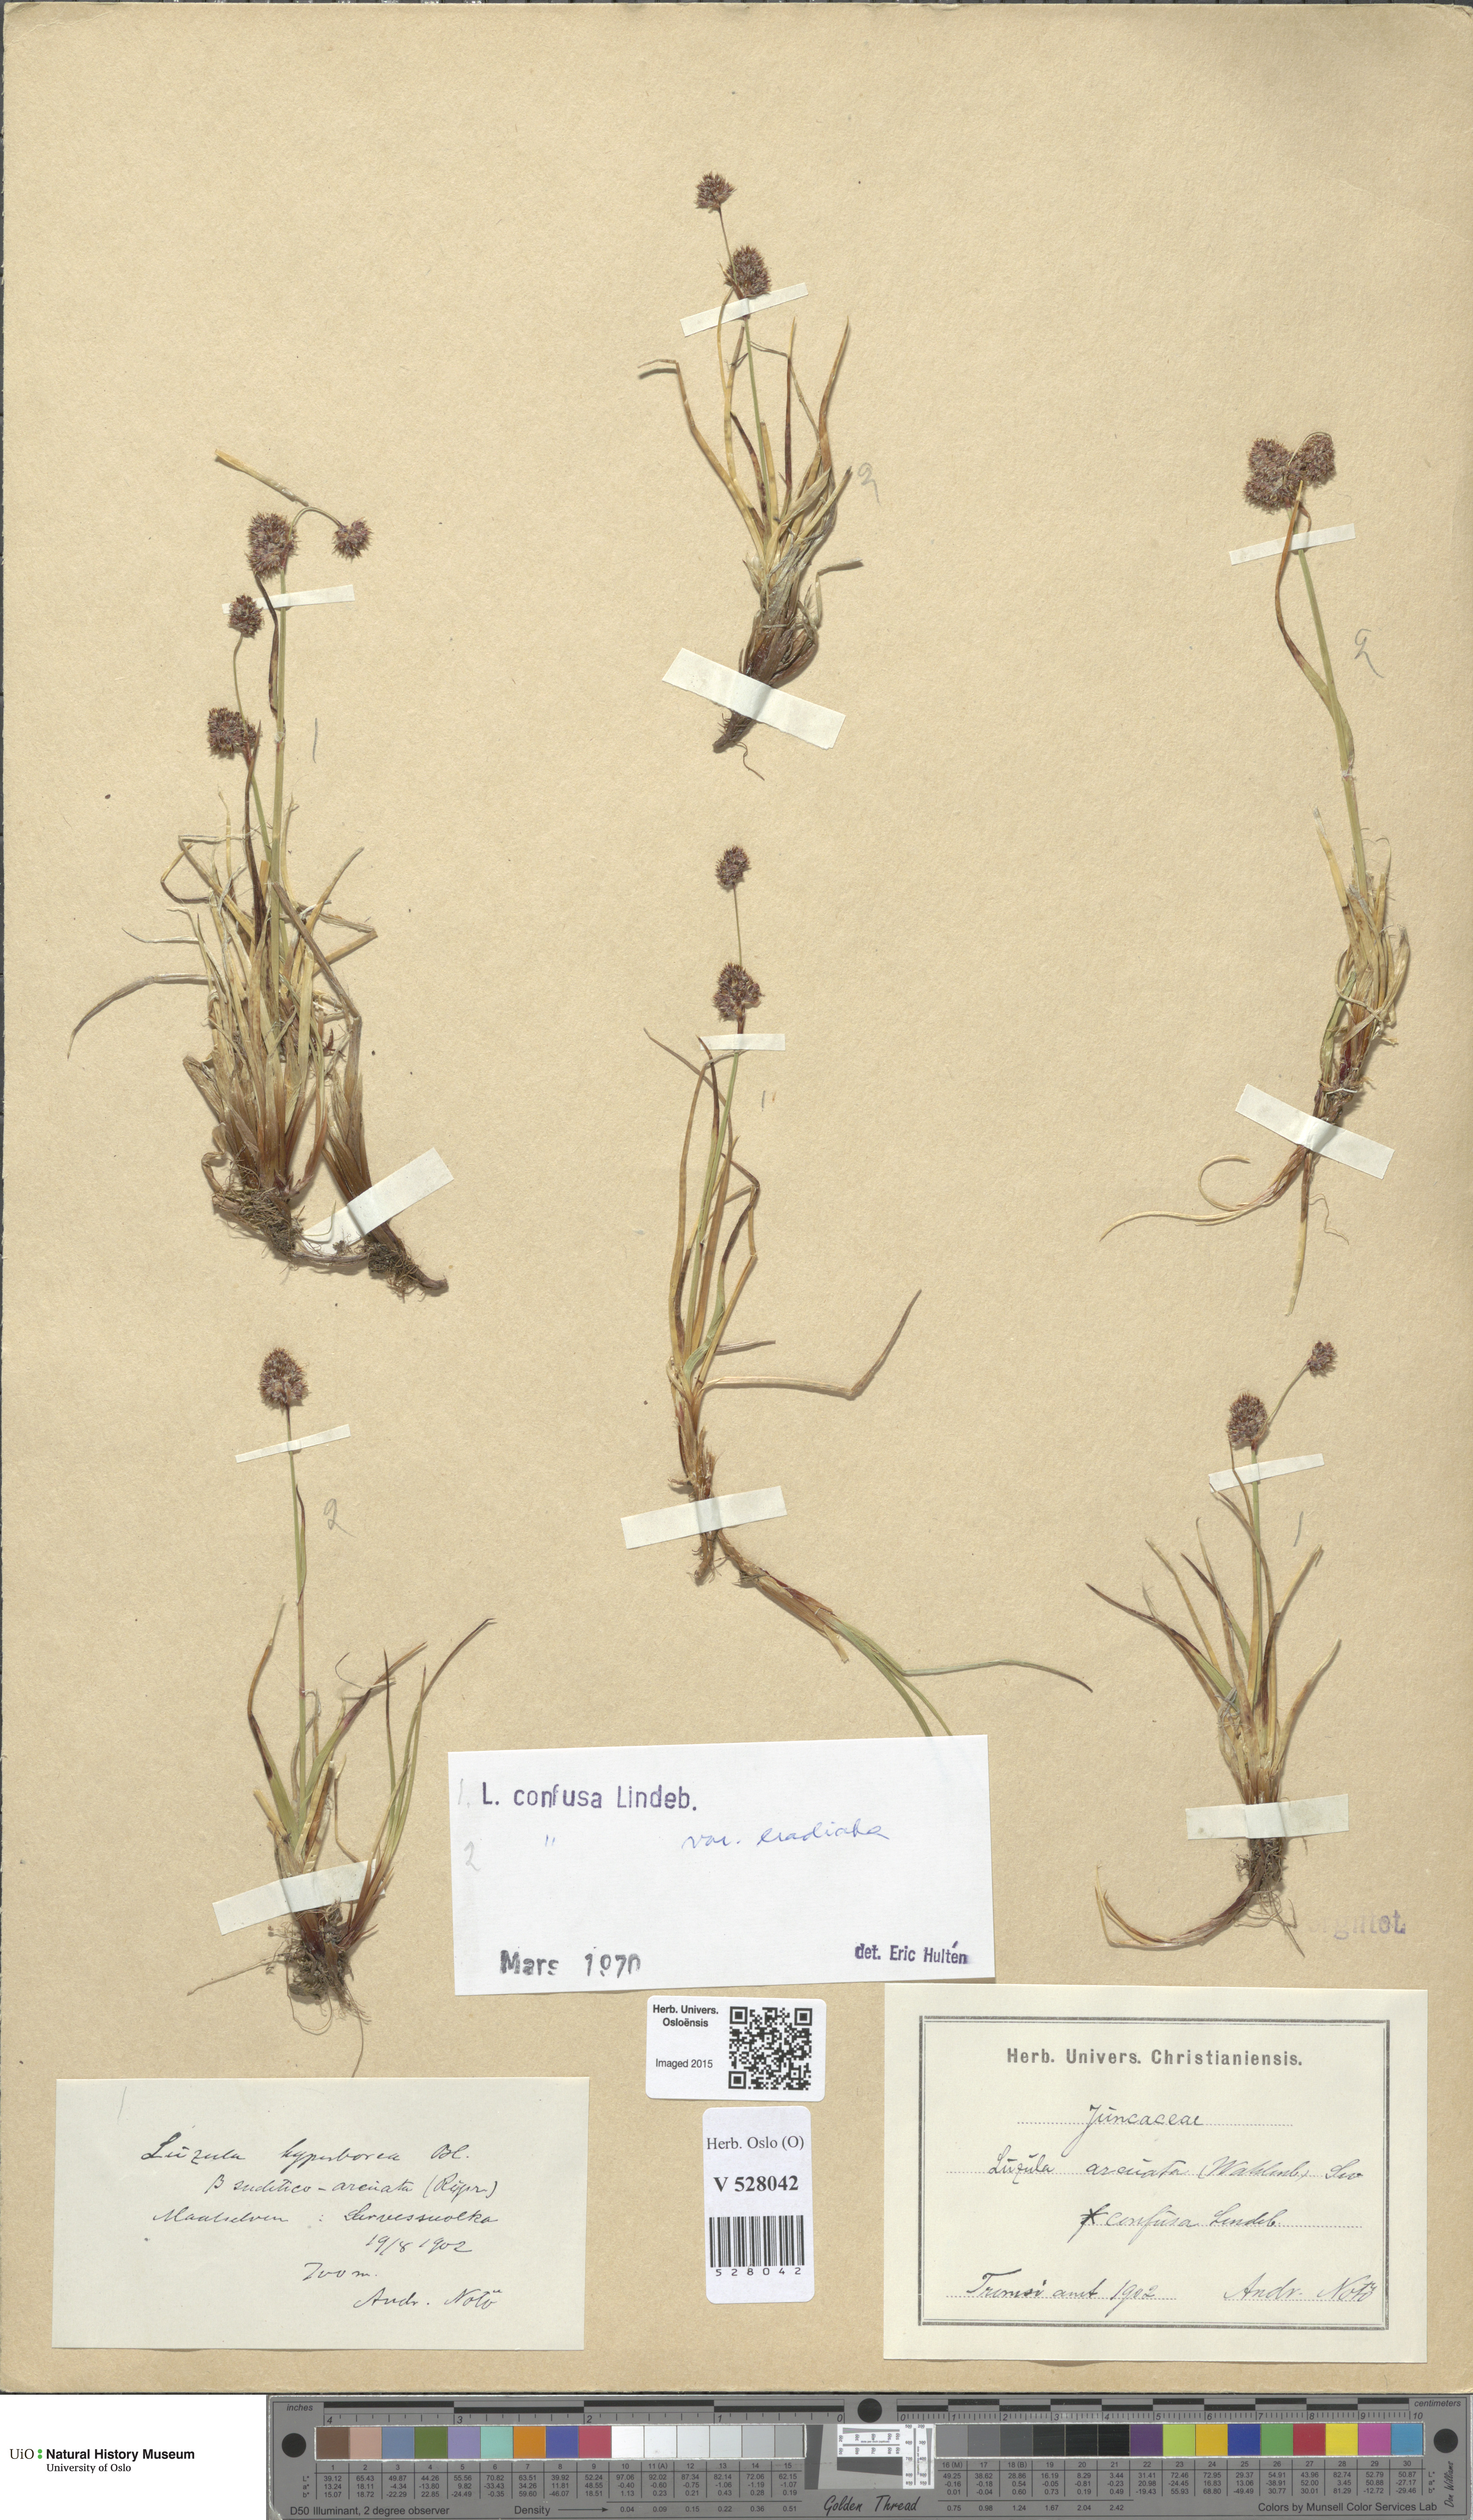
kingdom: Plantae
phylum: Tracheophyta
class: Liliopsida
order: Poales
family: Juncaceae
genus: Luzula
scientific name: Luzula confusa
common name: Northern wood rush
